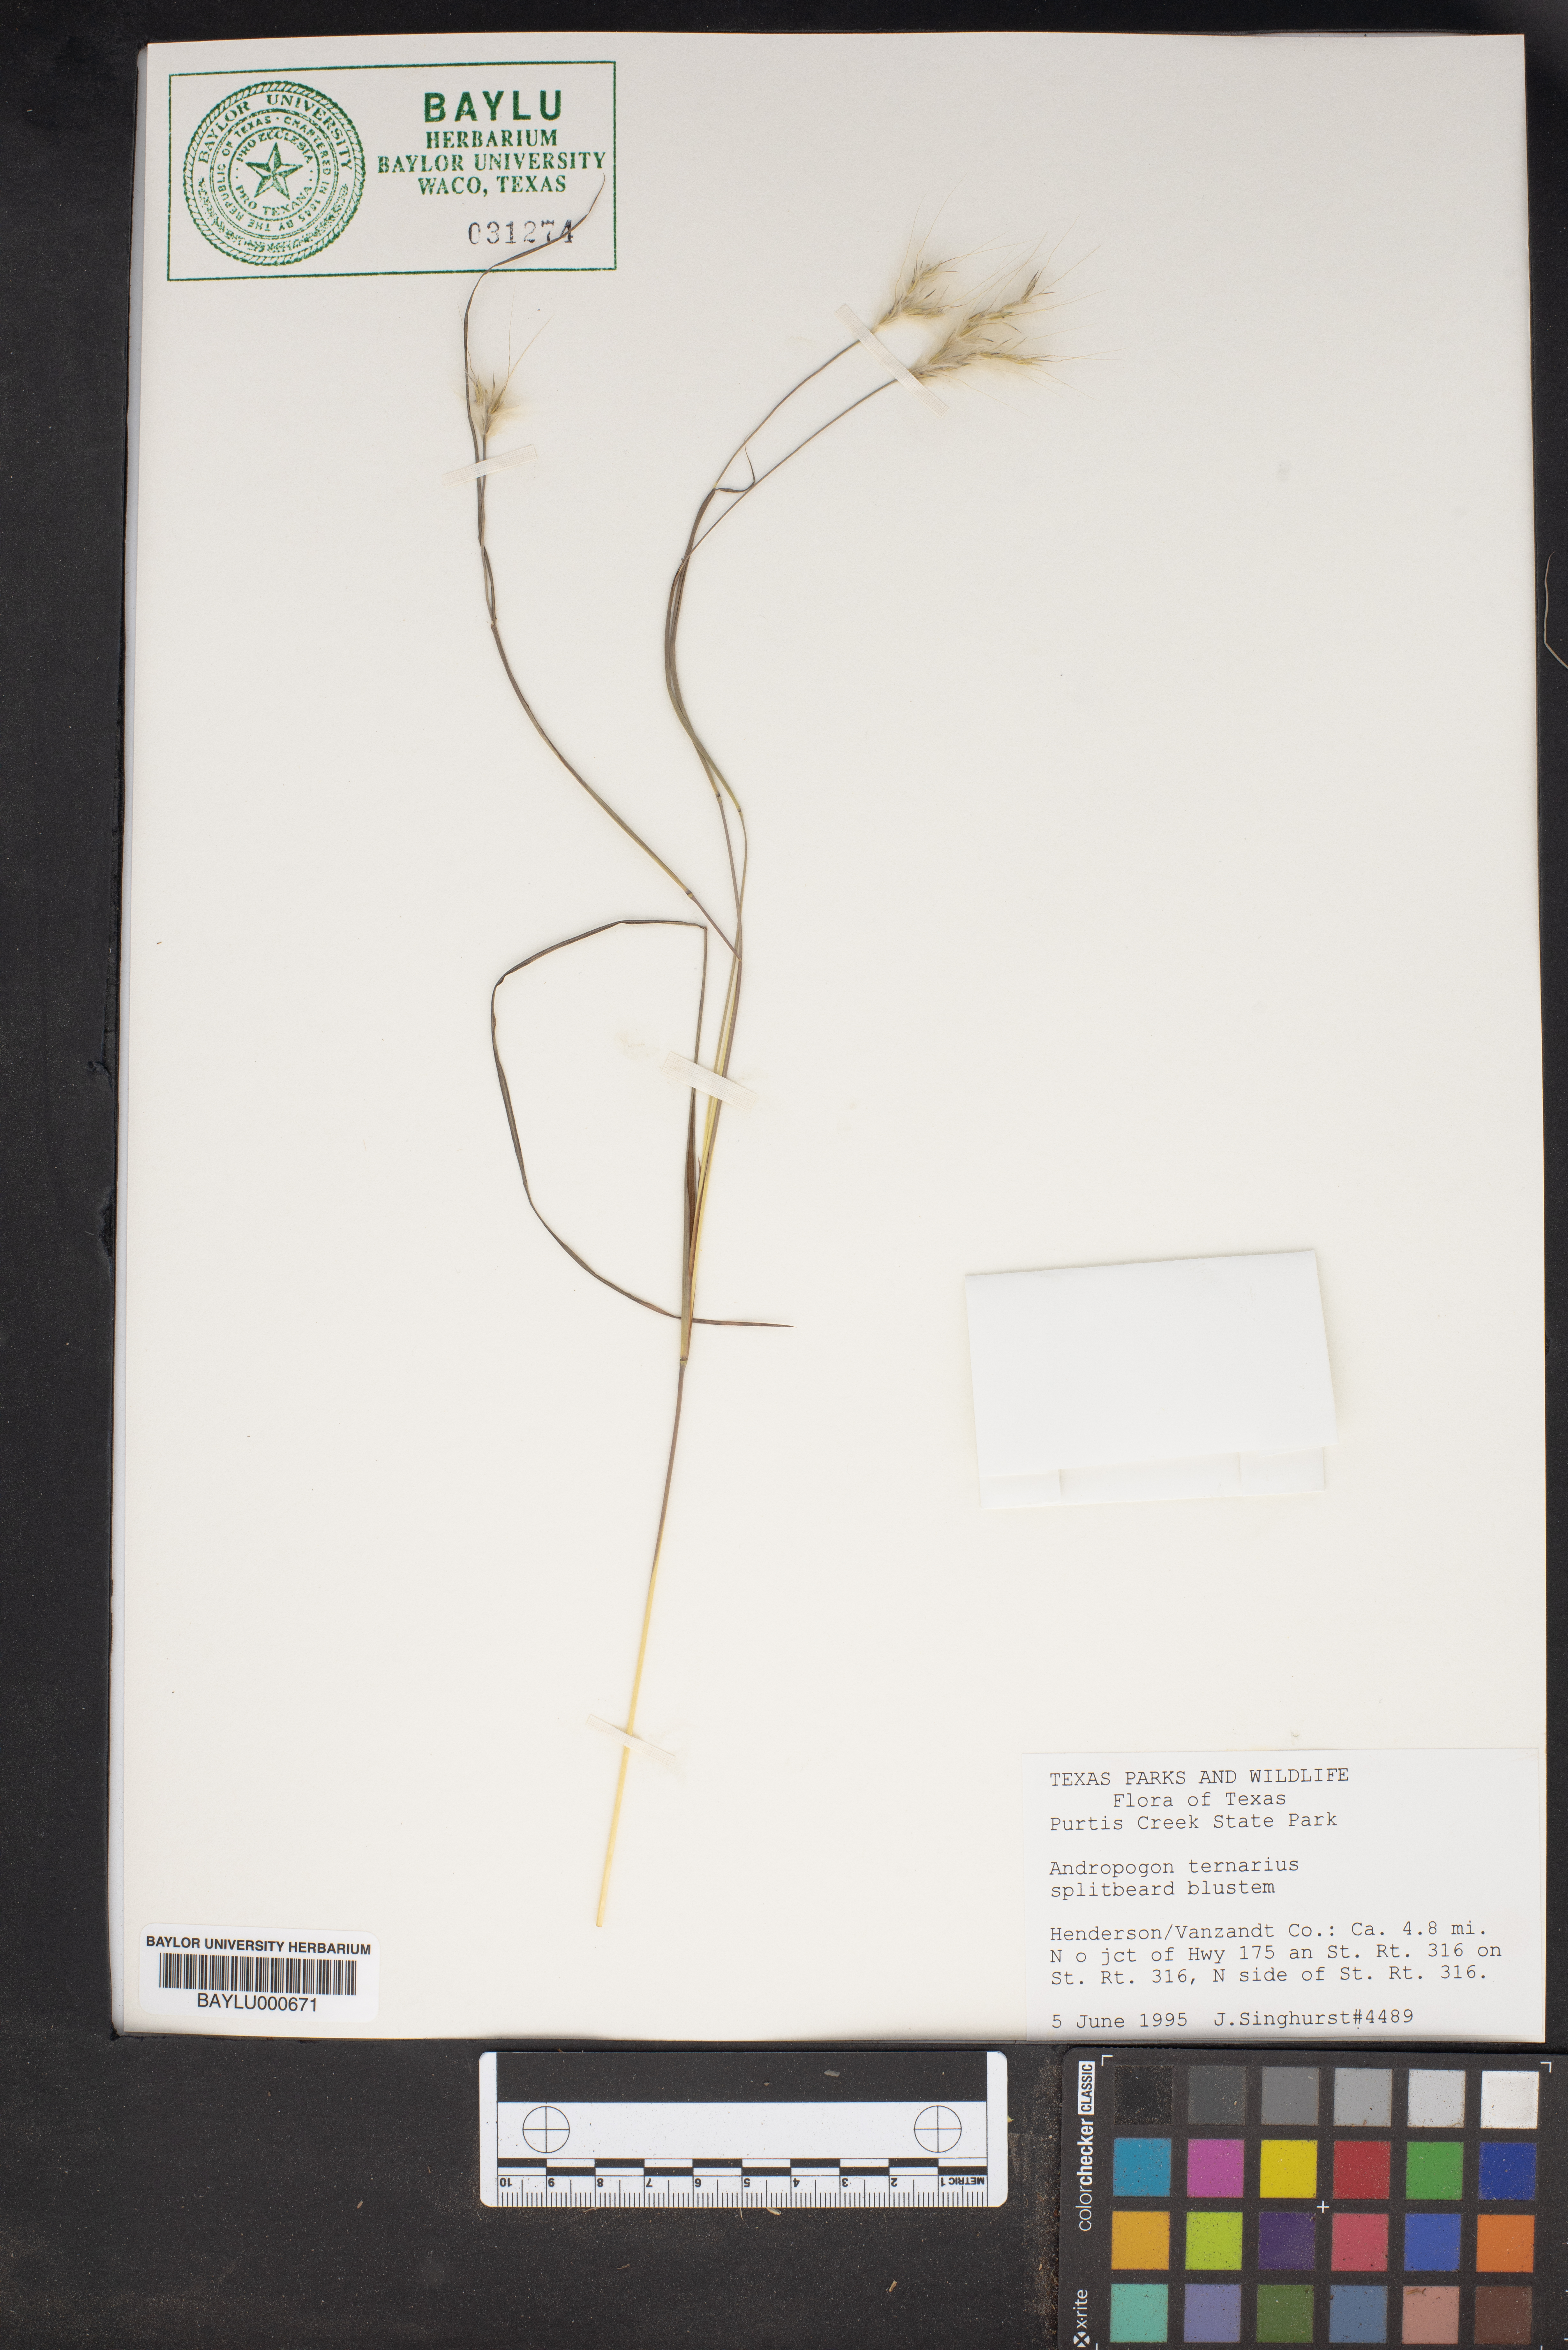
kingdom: Plantae
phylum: Tracheophyta
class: Liliopsida
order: Poales
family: Poaceae
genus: Andropogon
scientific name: Andropogon ternarius
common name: Split bluestem
